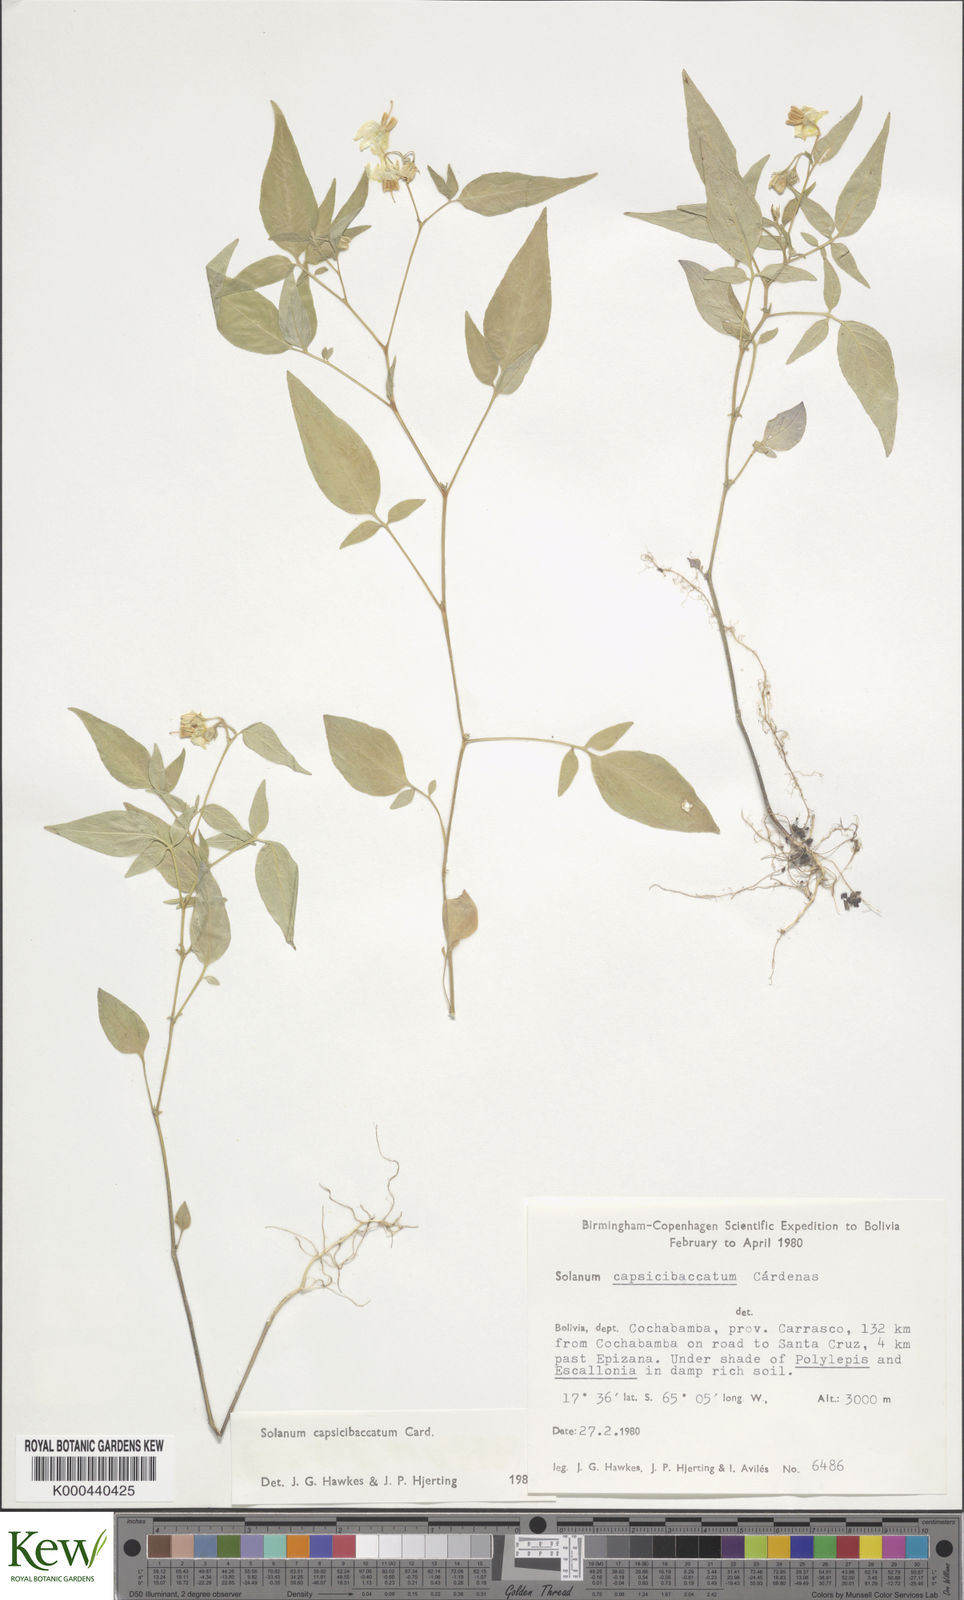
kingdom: Plantae
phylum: Tracheophyta
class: Magnoliopsida
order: Solanales
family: Solanaceae
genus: Solanum
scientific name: Solanum stipuloideum
